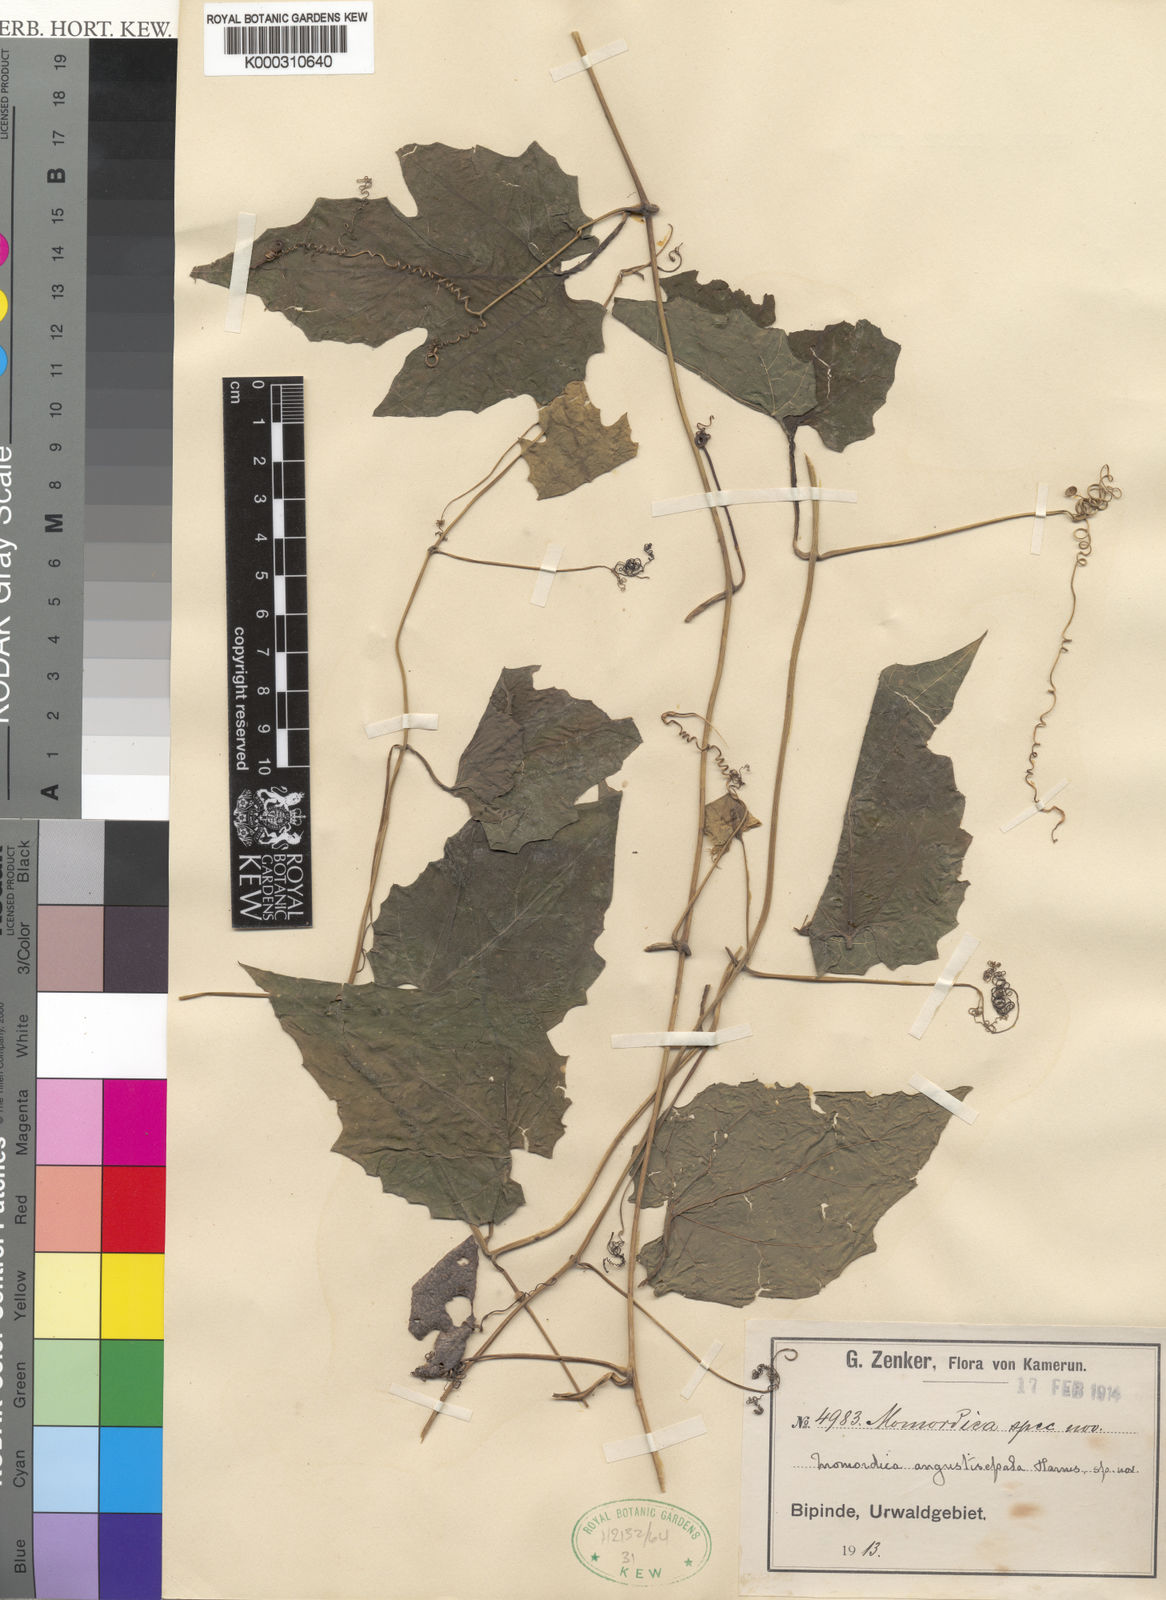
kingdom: Plantae
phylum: Tracheophyta
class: Magnoliopsida
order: Cucurbitales
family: Cucurbitaceae
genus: Momordica
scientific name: Momordica angustisepala
